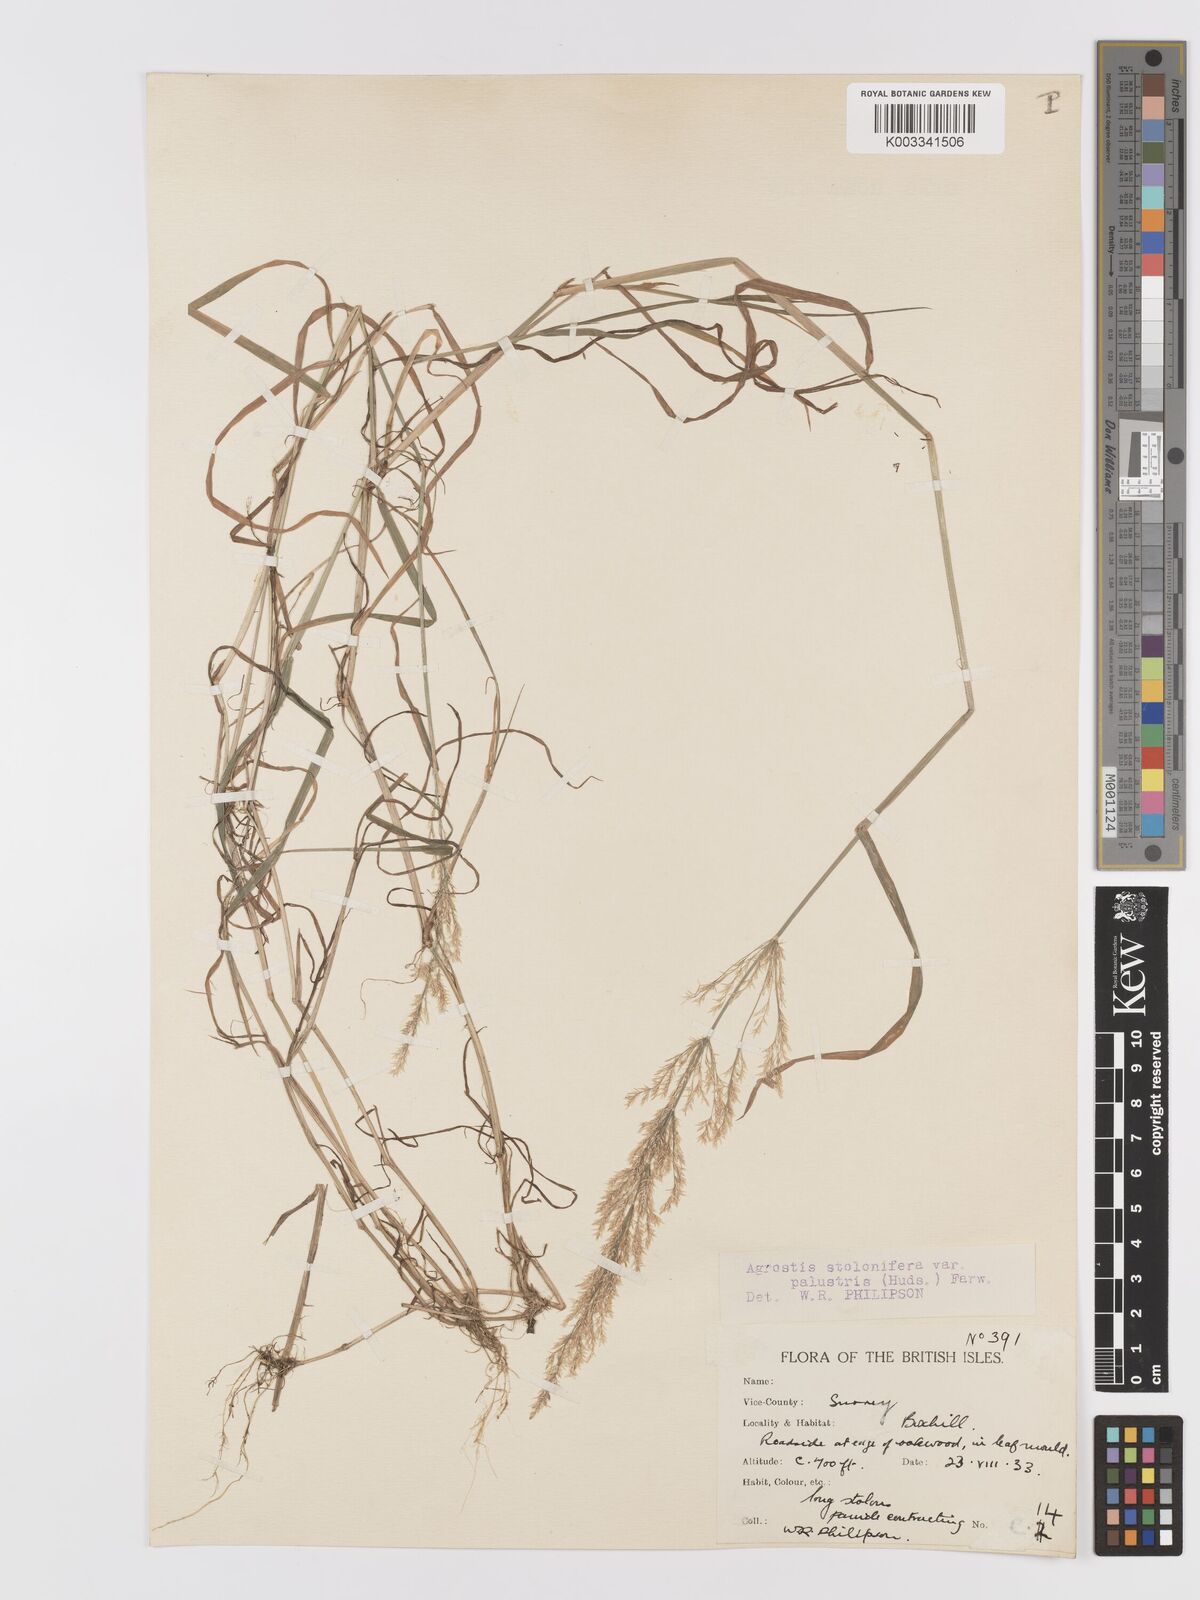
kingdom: Plantae
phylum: Tracheophyta
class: Liliopsida
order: Poales
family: Poaceae
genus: Agrostis
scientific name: Agrostis stolonifera
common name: Creeping bentgrass
